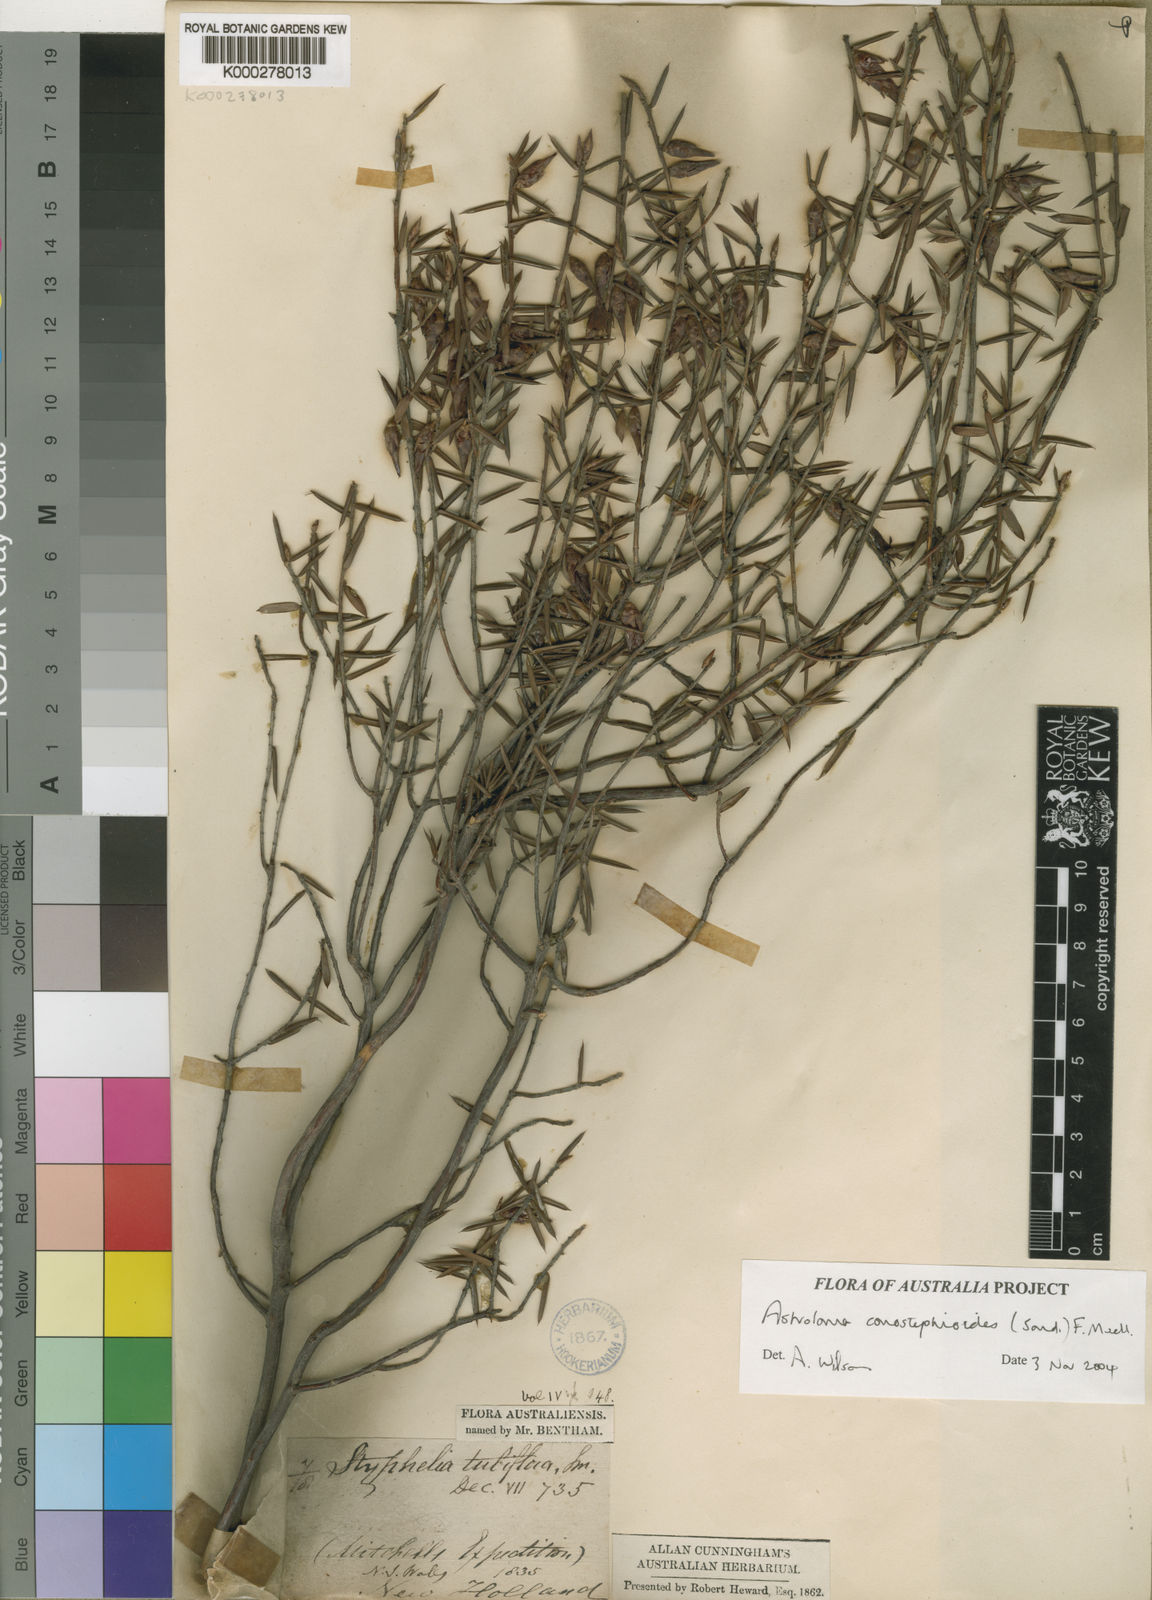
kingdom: Plantae
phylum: Tracheophyta
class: Magnoliopsida
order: Ericales
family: Ericaceae
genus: Styphelia
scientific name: Styphelia
